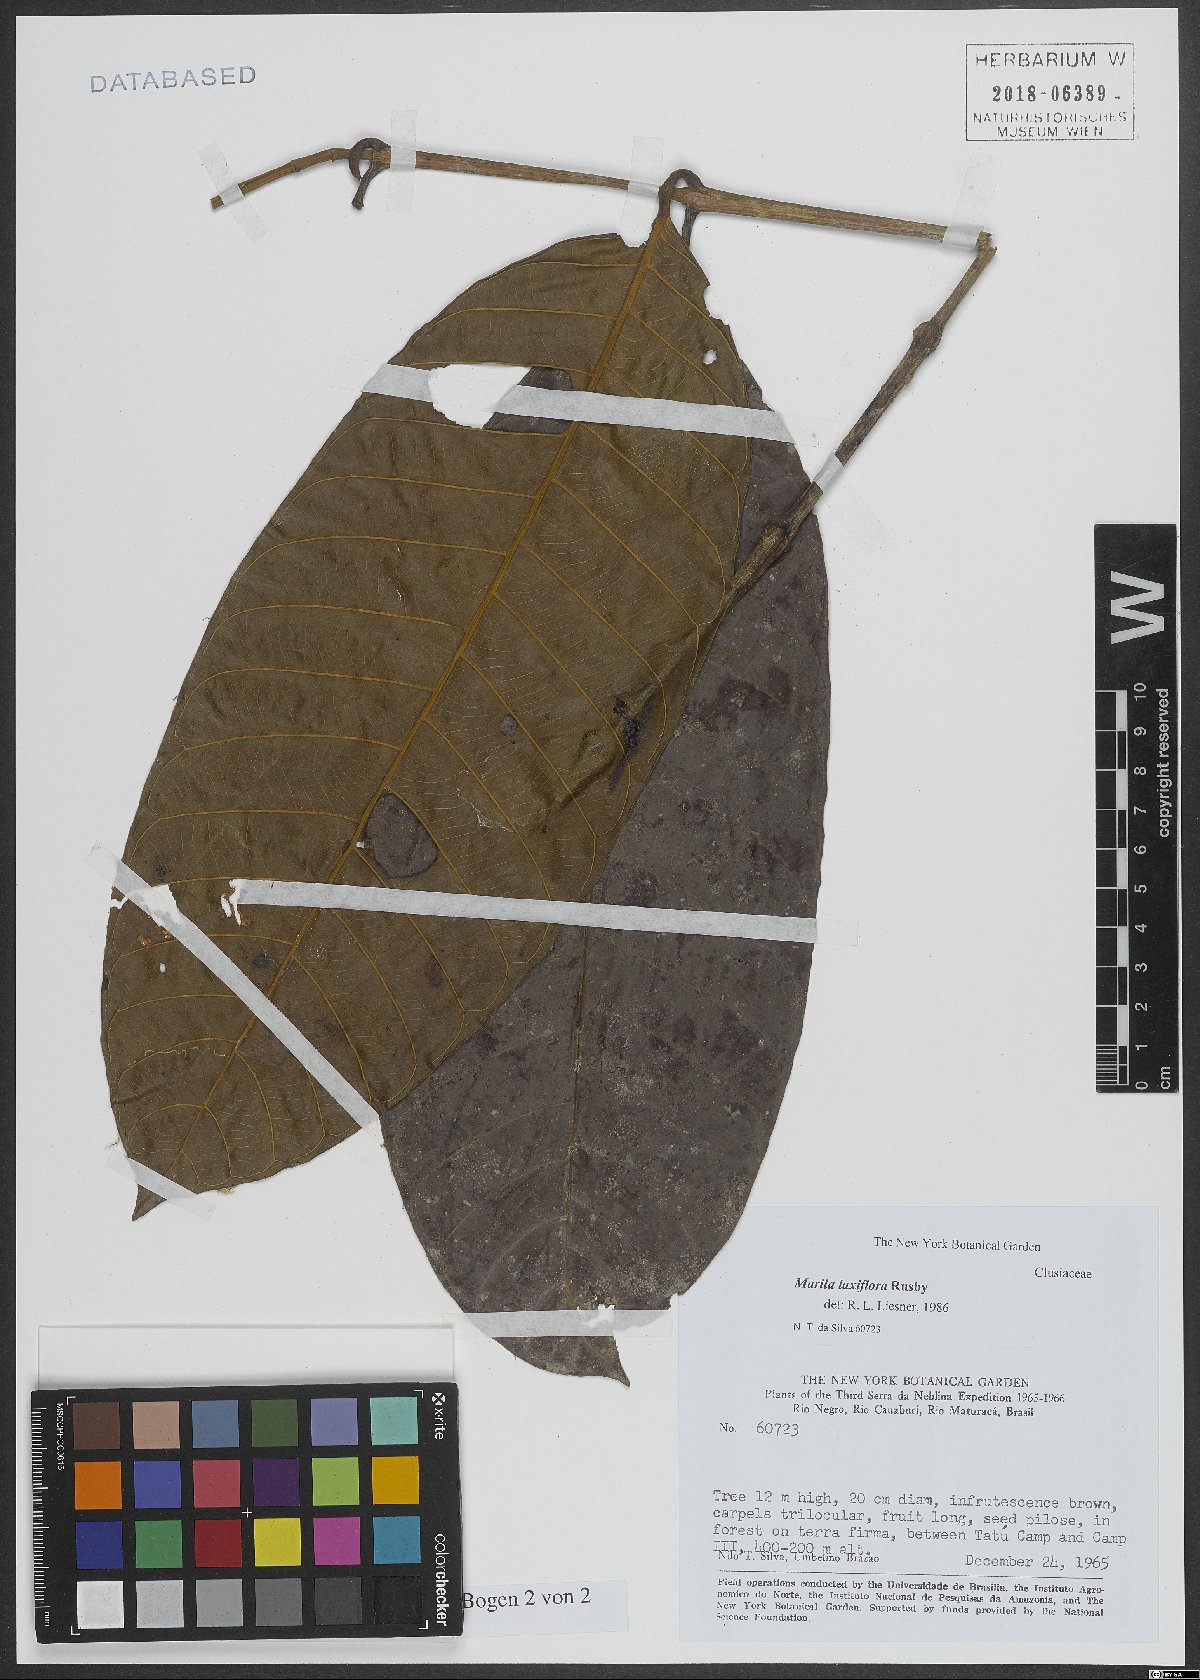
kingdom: Plantae
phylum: Tracheophyta
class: Magnoliopsida
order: Malpighiales
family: Calophyllaceae
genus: Marila
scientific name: Marila laxiflora
